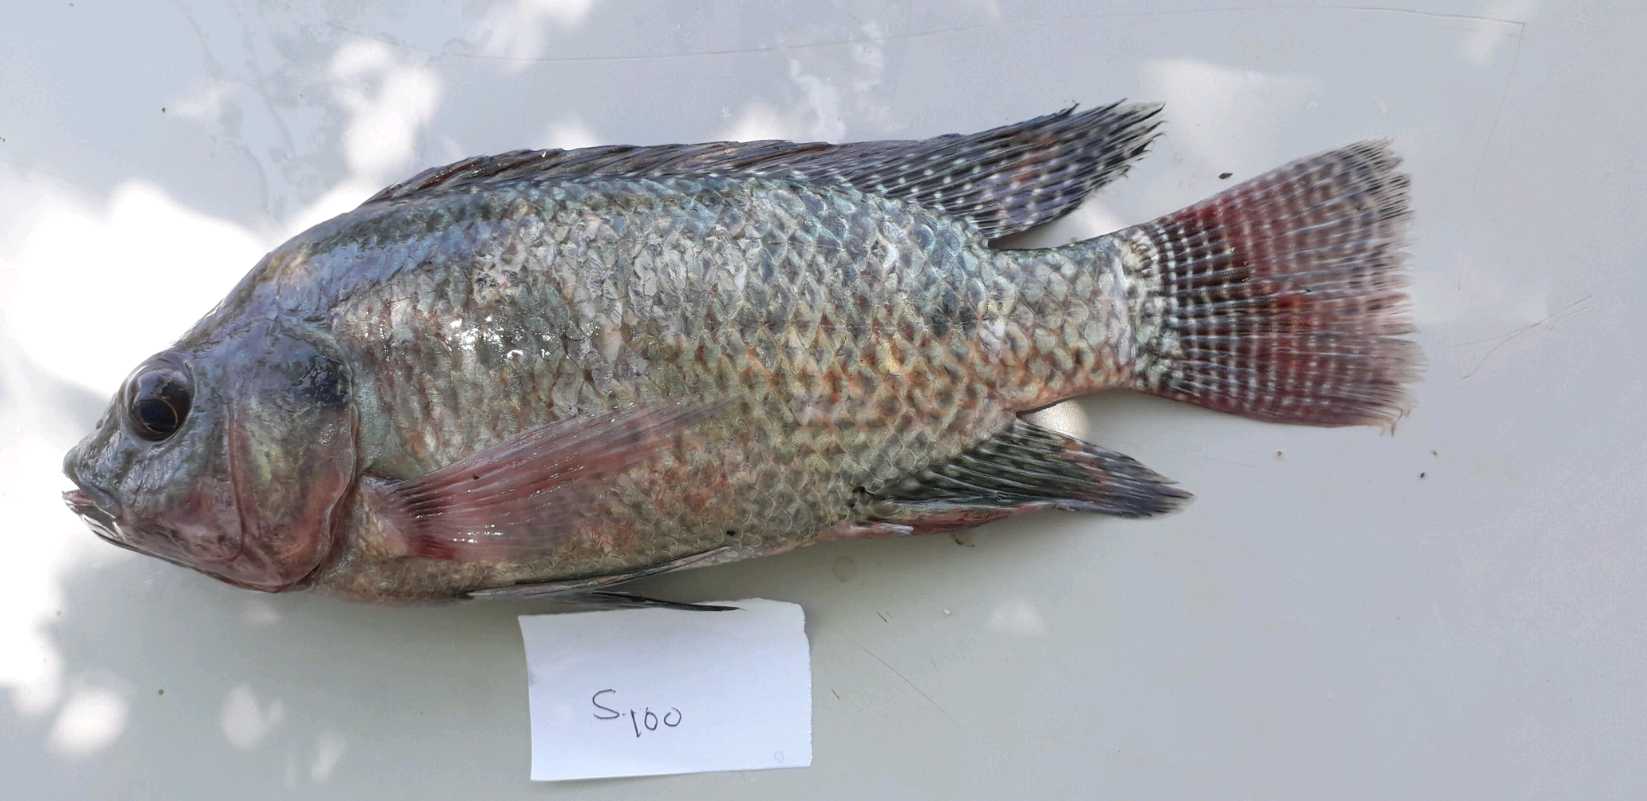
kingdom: Animalia
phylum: Chordata
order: Perciformes
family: Cichlidae
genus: Oreochromis
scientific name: Oreochromis niloticus
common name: Nile tilapia
